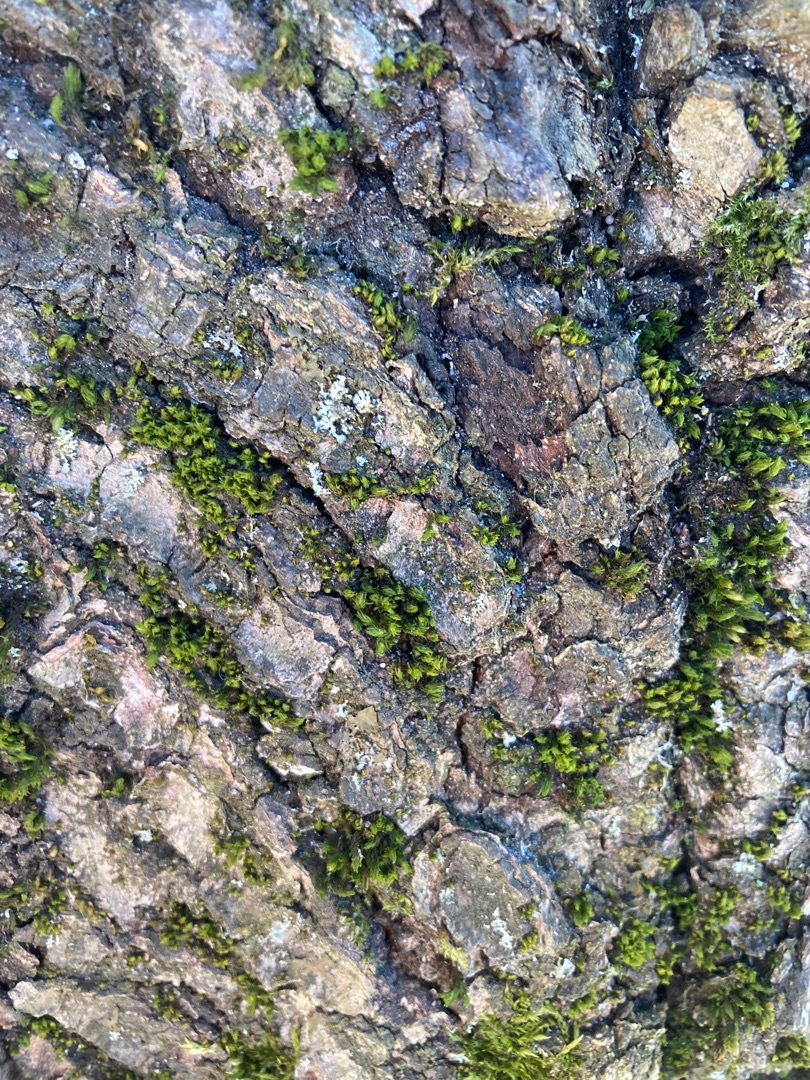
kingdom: Plantae
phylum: Bryophyta
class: Bryopsida
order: Orthotrichales
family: Orthotrichaceae
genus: Lewinskya
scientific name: Lewinskya affinis
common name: Almindelig furehætte
